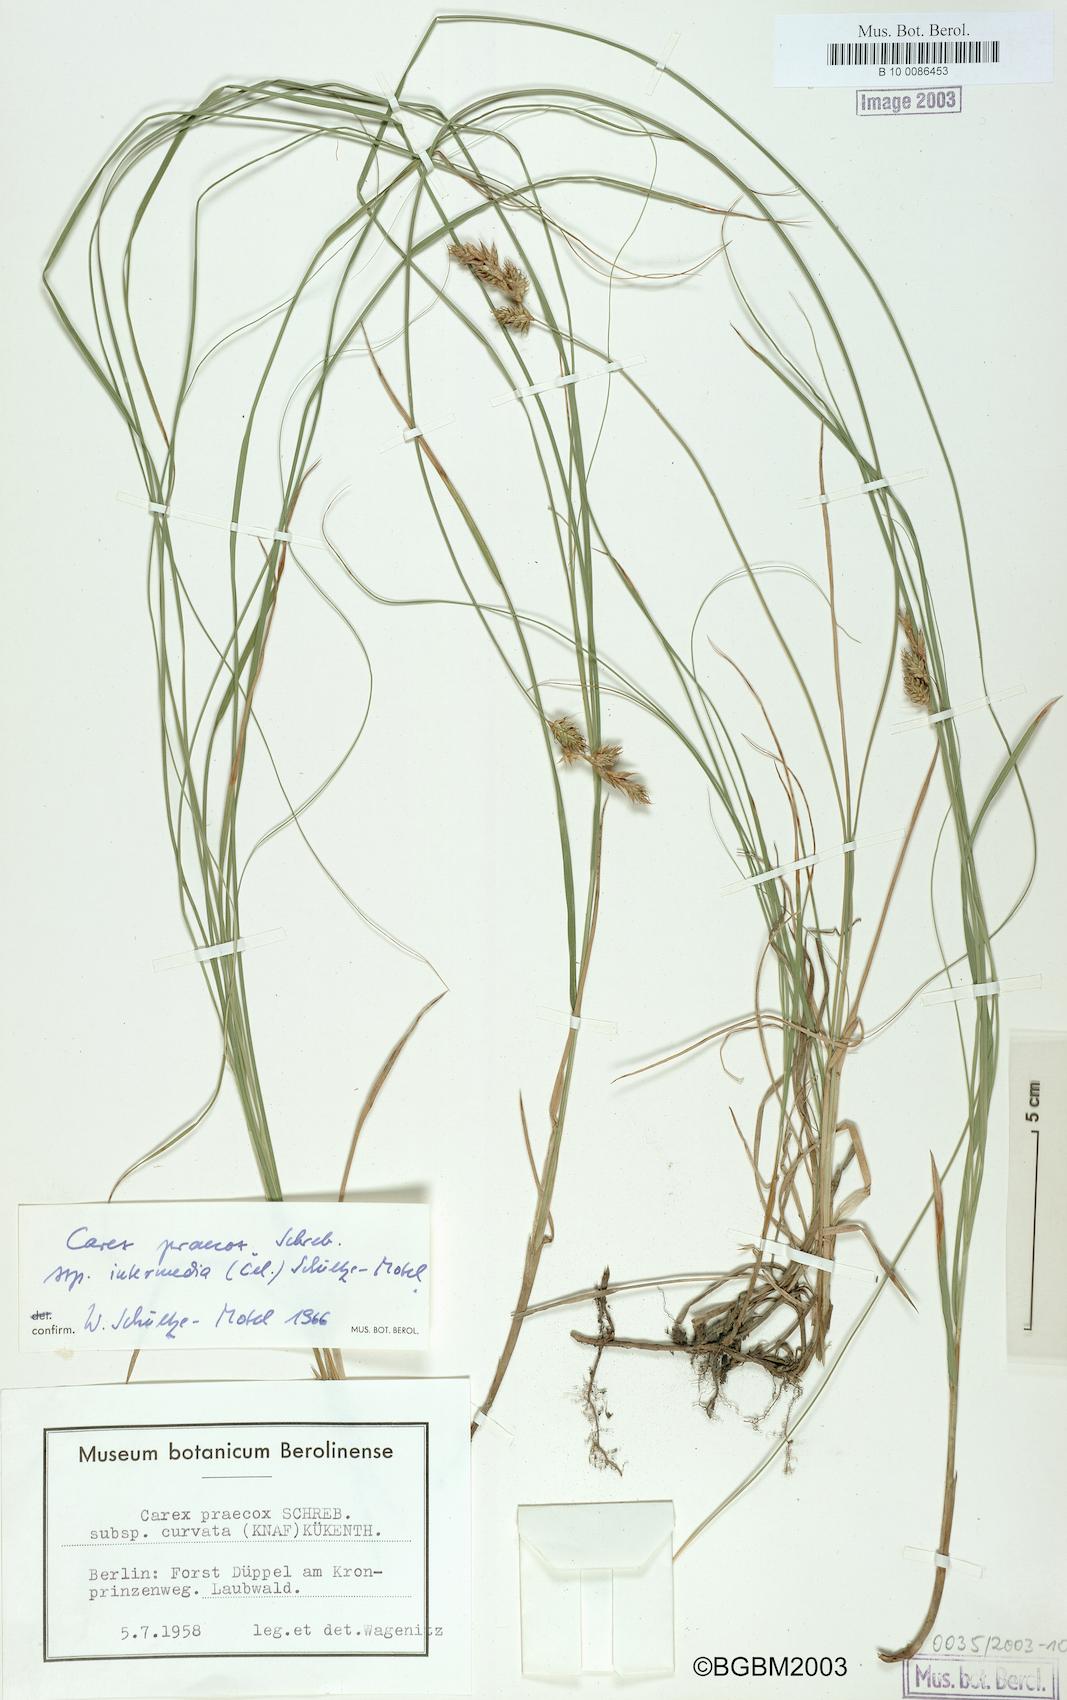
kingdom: Plantae
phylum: Tracheophyta
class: Liliopsida
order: Poales
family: Cyperaceae
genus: Carex
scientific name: Carex colchica
